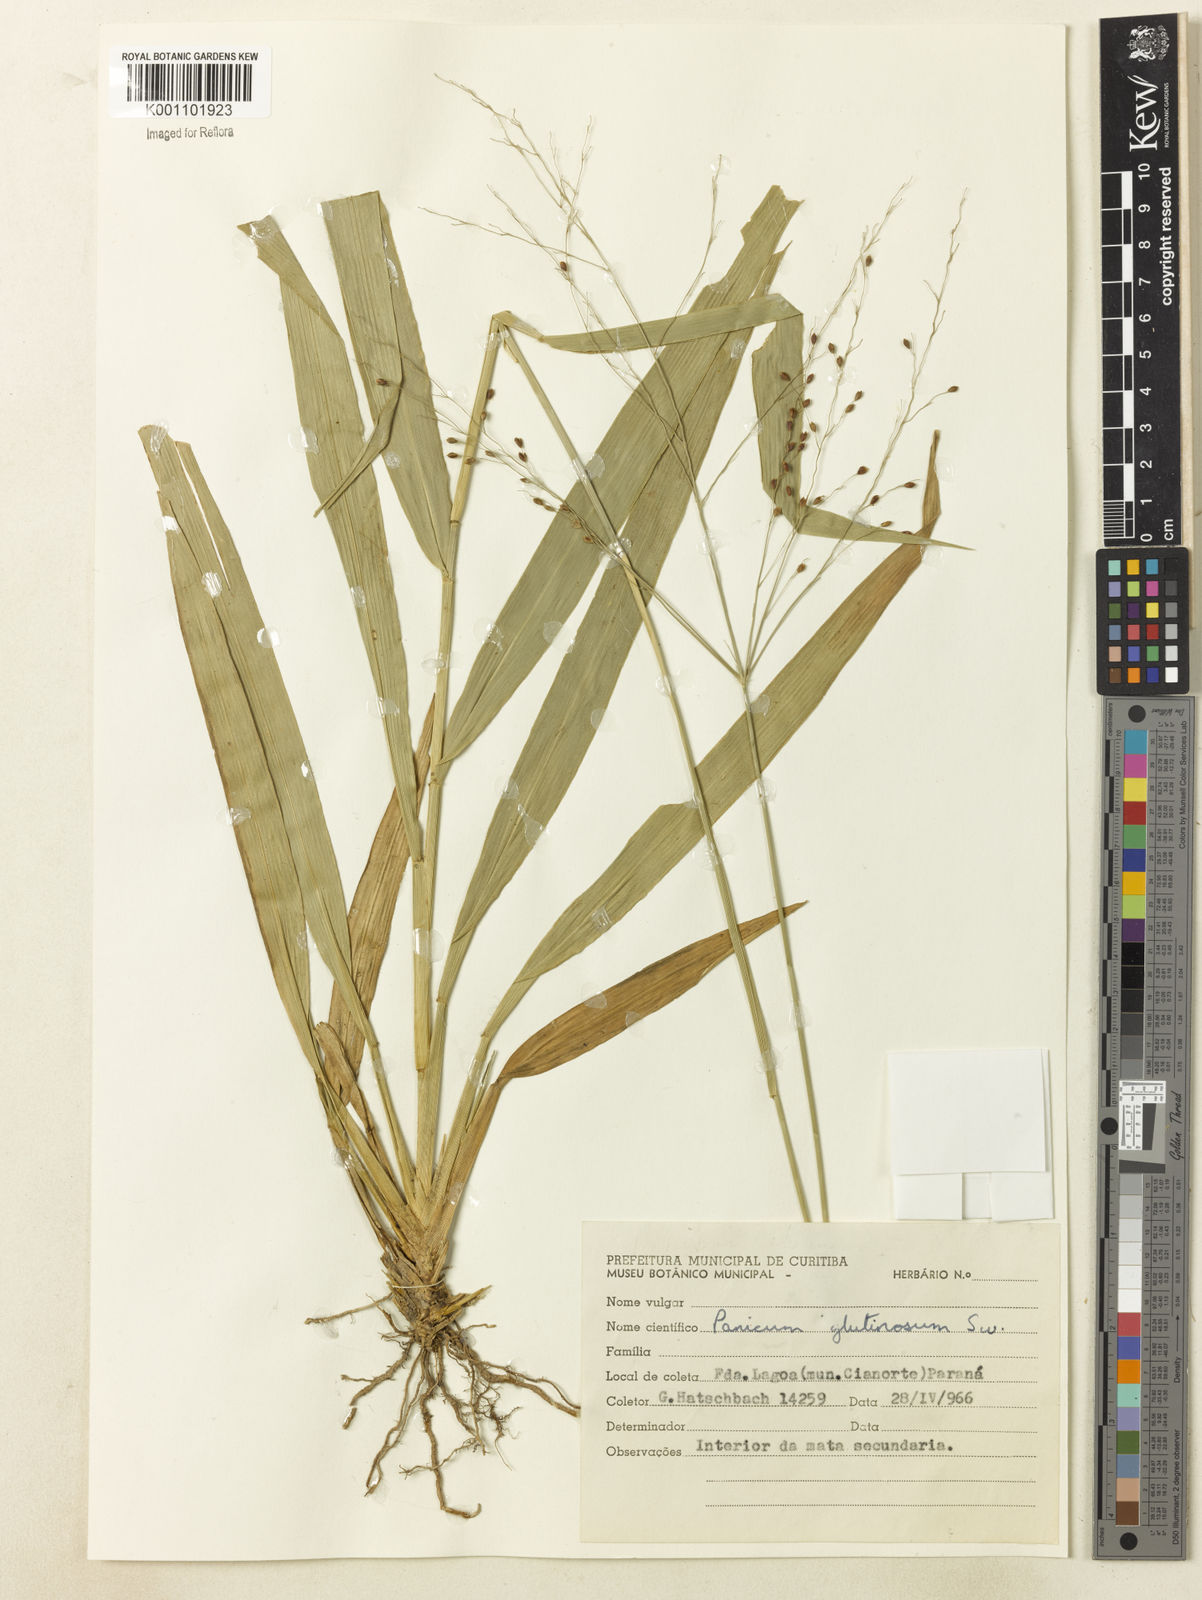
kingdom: Plantae
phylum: Tracheophyta
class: Liliopsida
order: Poales
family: Poaceae
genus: Homolepis
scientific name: Homolepis glutinosa
